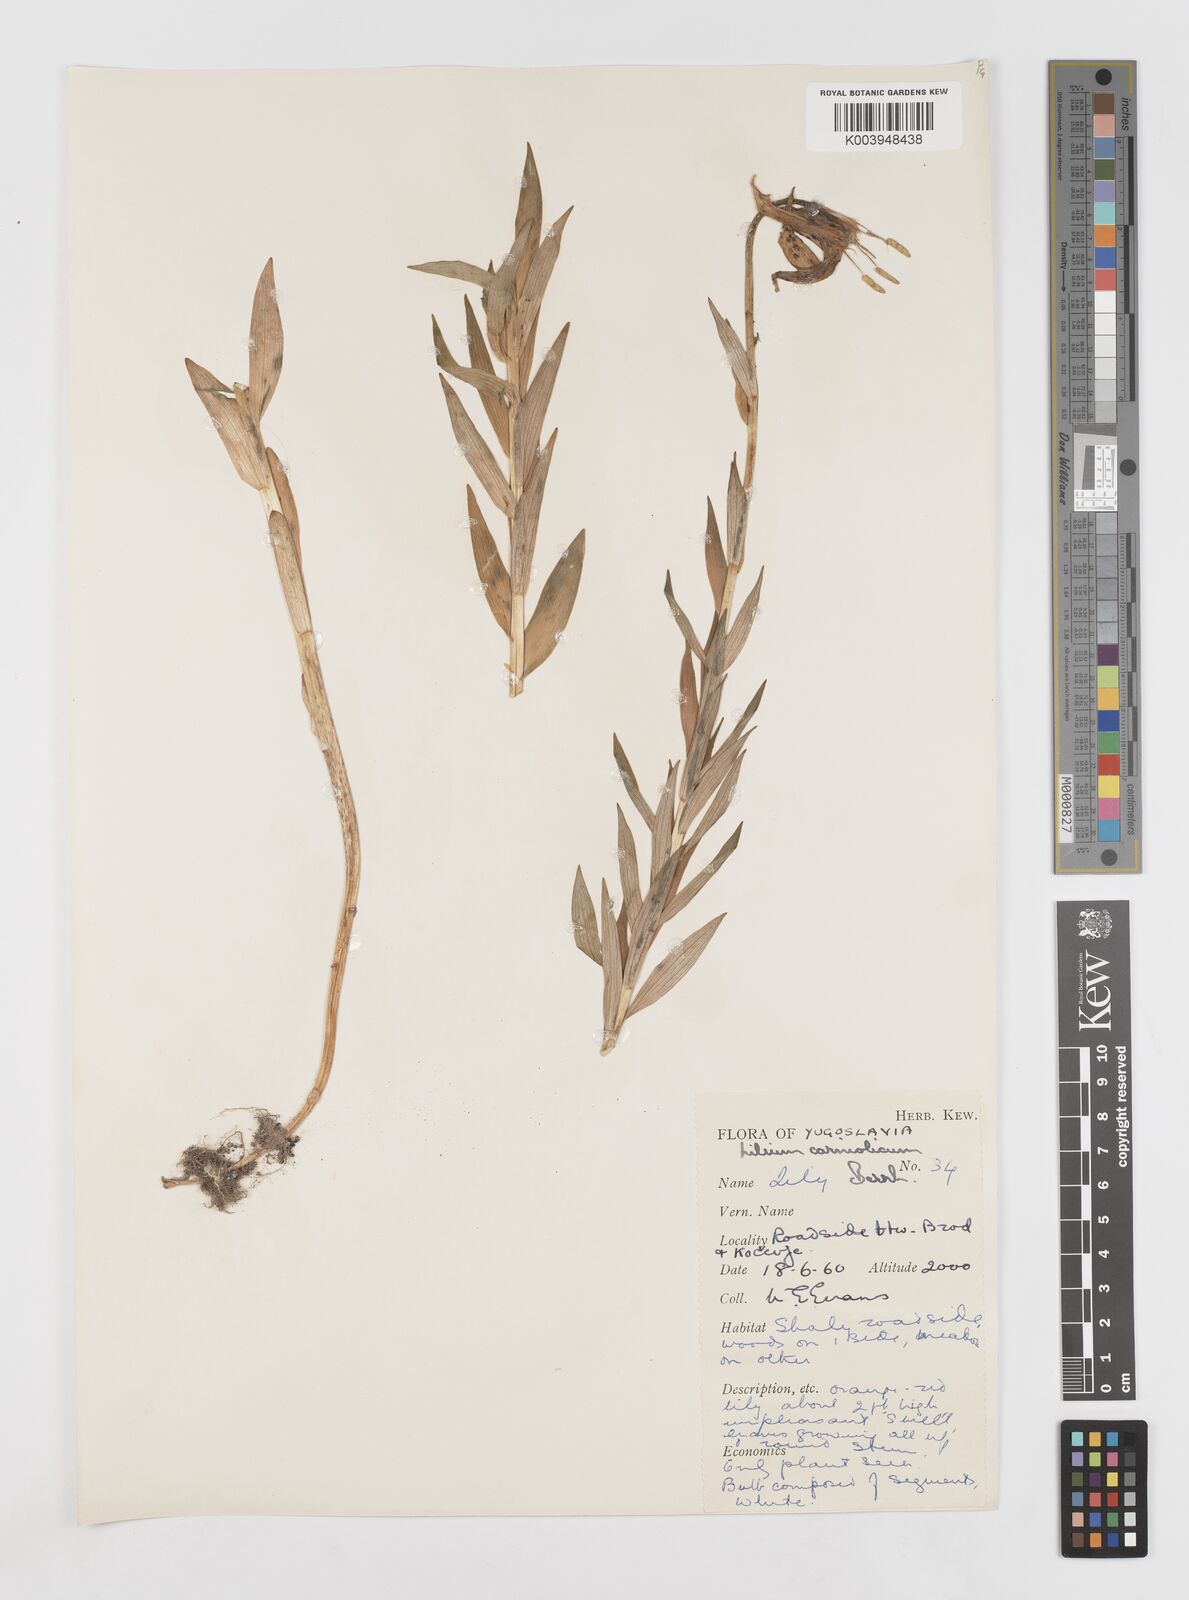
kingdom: Plantae
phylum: Tracheophyta
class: Liliopsida
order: Liliales
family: Liliaceae
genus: Lilium
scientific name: Lilium carniolicum
